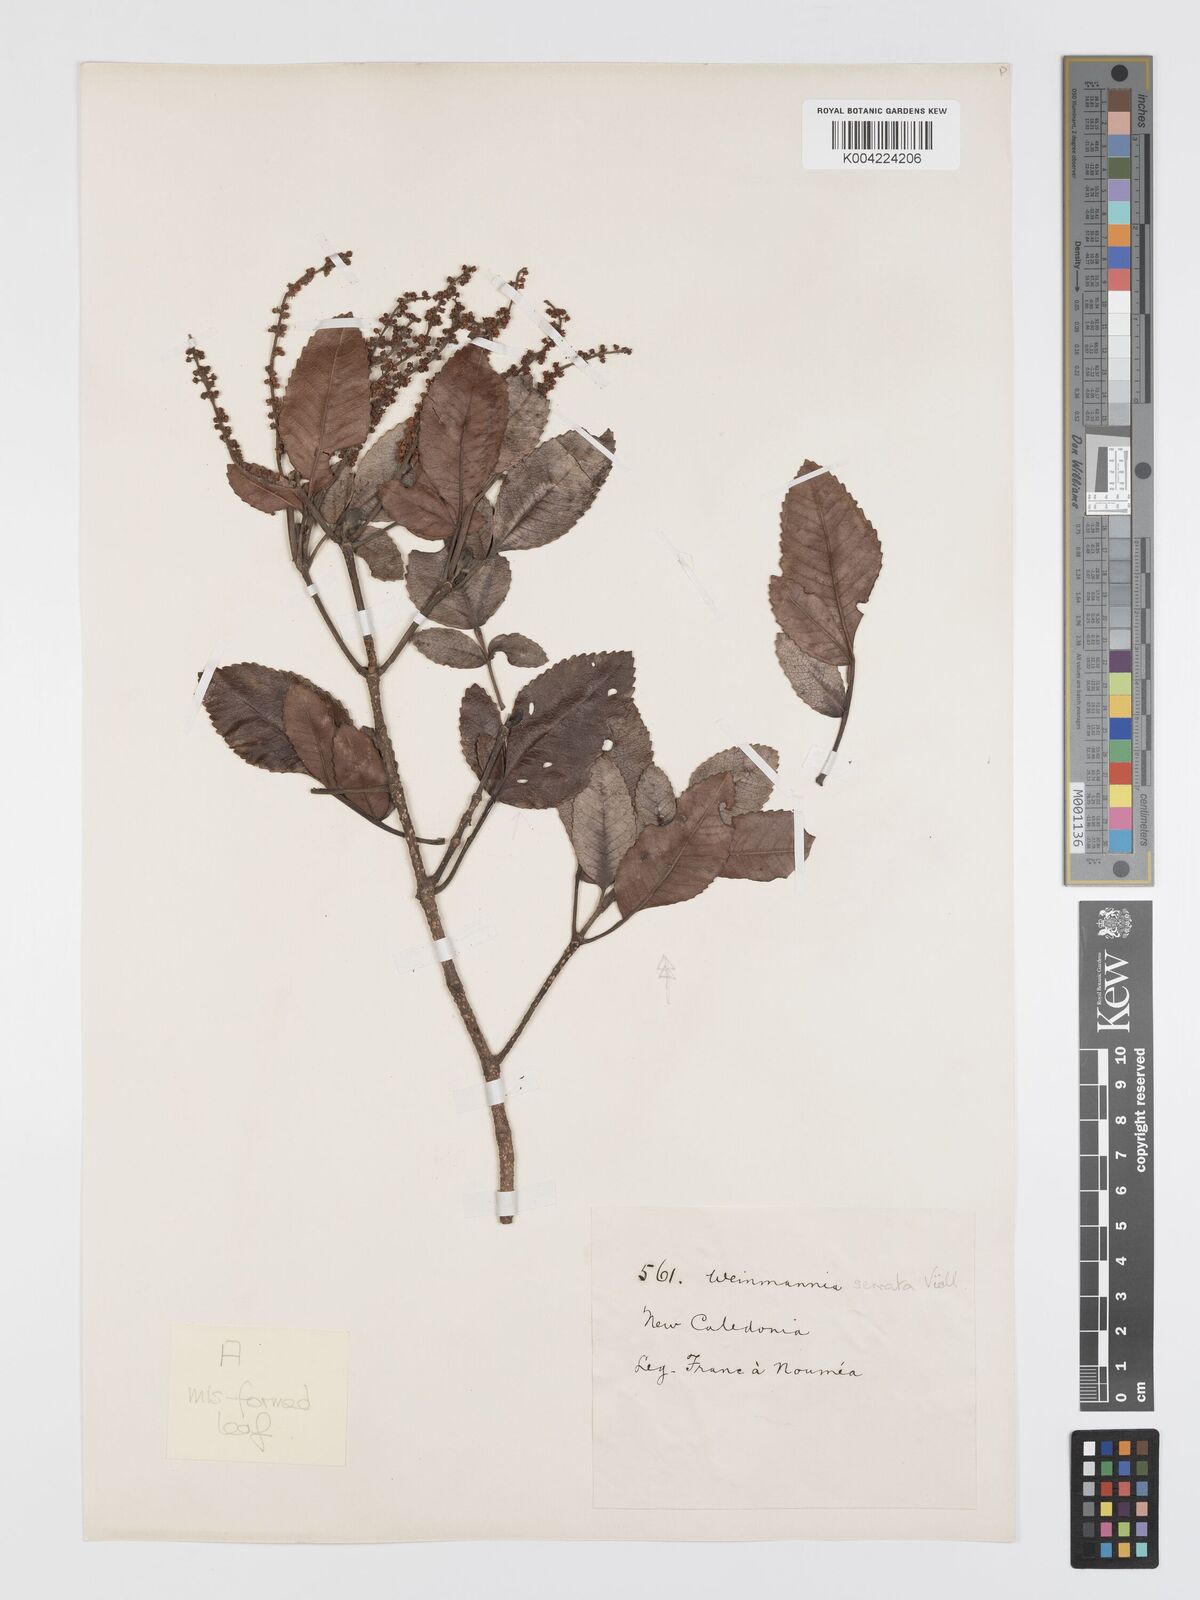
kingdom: Plantae
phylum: Tracheophyta
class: Magnoliopsida
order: Oxalidales
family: Cunoniaceae
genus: Cunonia
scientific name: Cunonia koghicola
